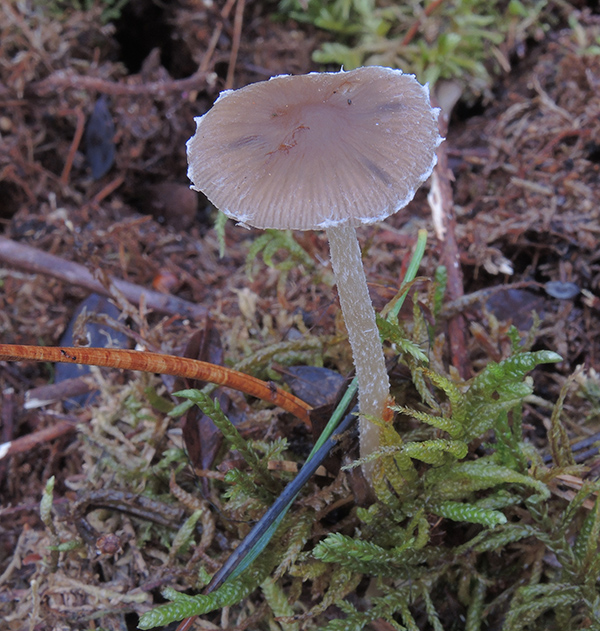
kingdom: Fungi
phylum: Basidiomycota
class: Agaricomycetes
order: Agaricales
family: Psathyrellaceae
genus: Psathyrella
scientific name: Psathyrella impexa
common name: rødmende mørkhat
